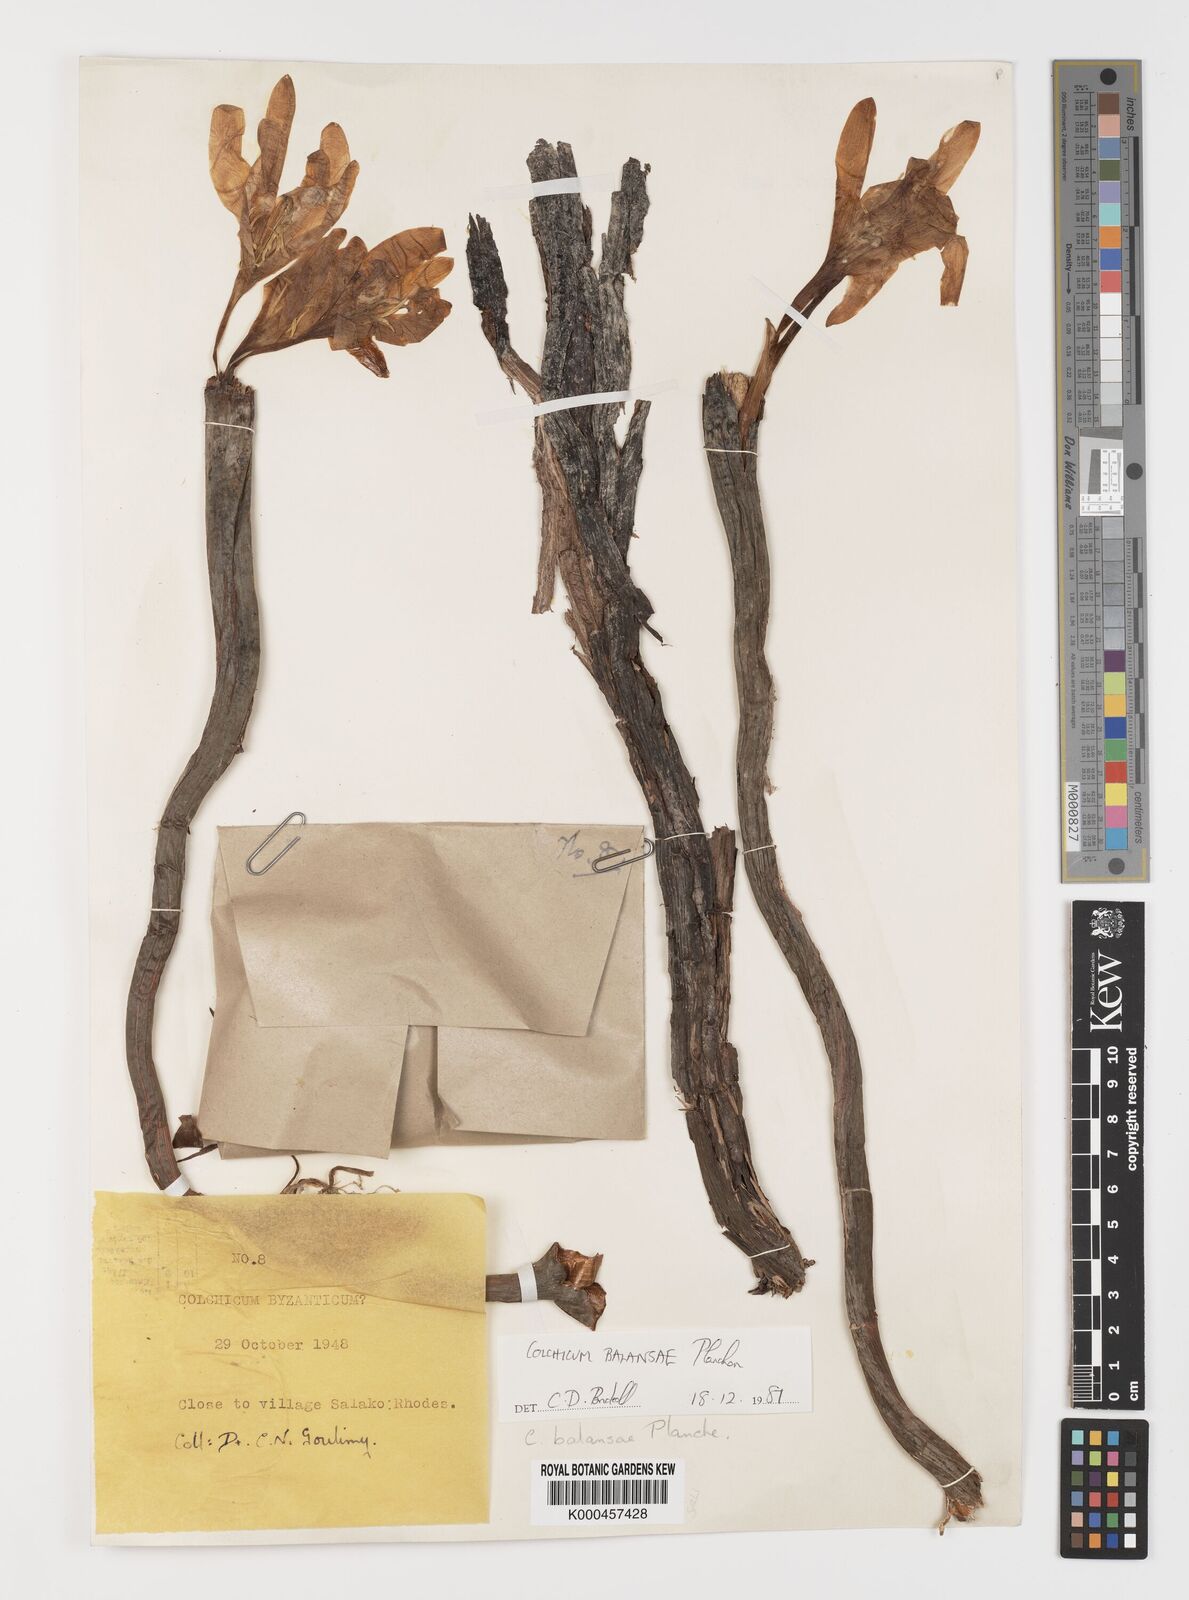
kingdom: Plantae
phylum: Tracheophyta
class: Liliopsida
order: Liliales
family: Colchicaceae
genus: Colchicum
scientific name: Colchicum balansae
